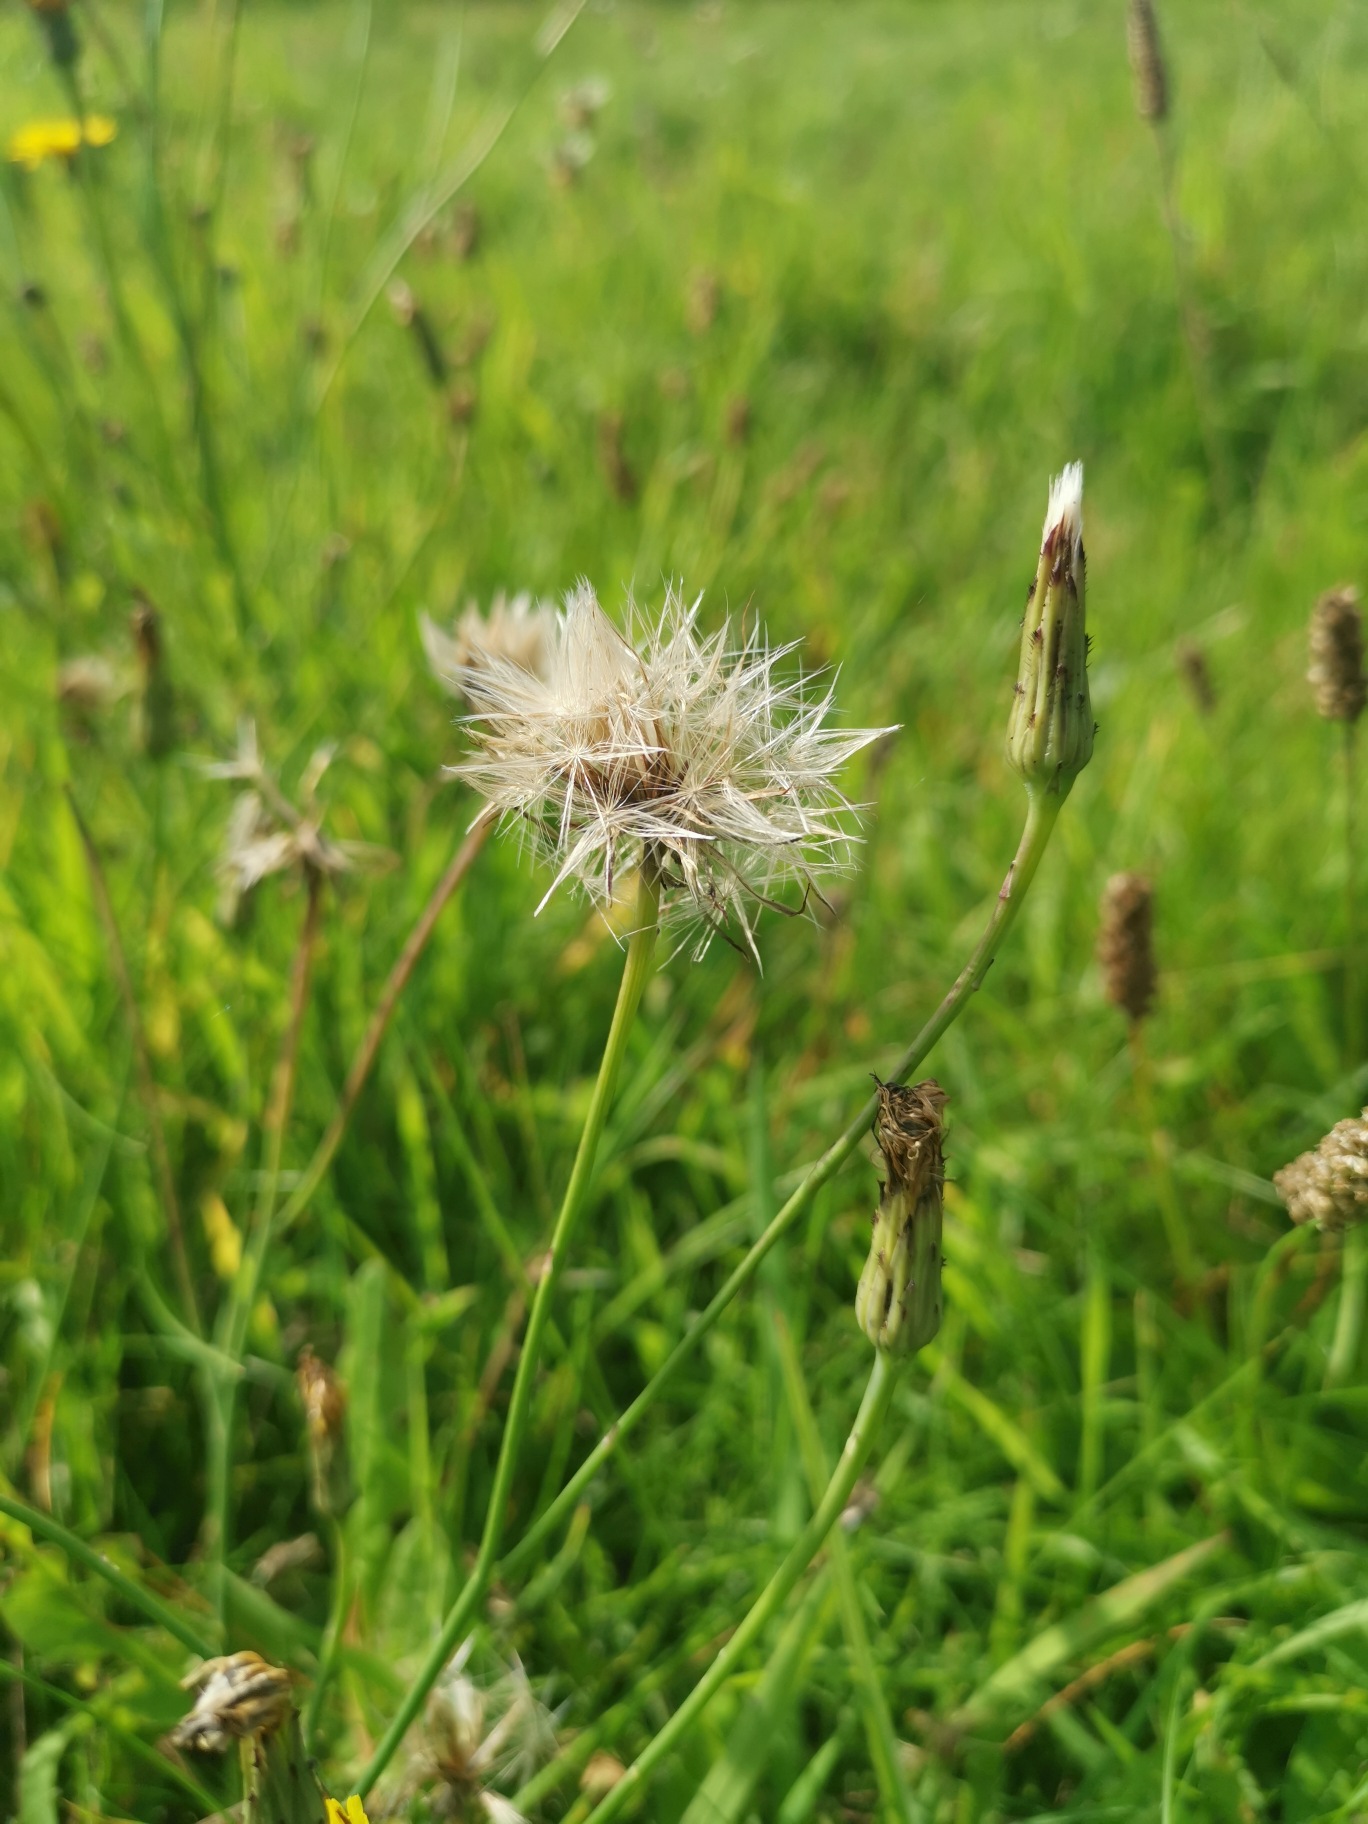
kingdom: Plantae
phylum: Tracheophyta
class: Magnoliopsida
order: Asterales
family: Asteraceae
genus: Hypochaeris
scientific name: Hypochaeris radicata
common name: Almindelig kongepen
